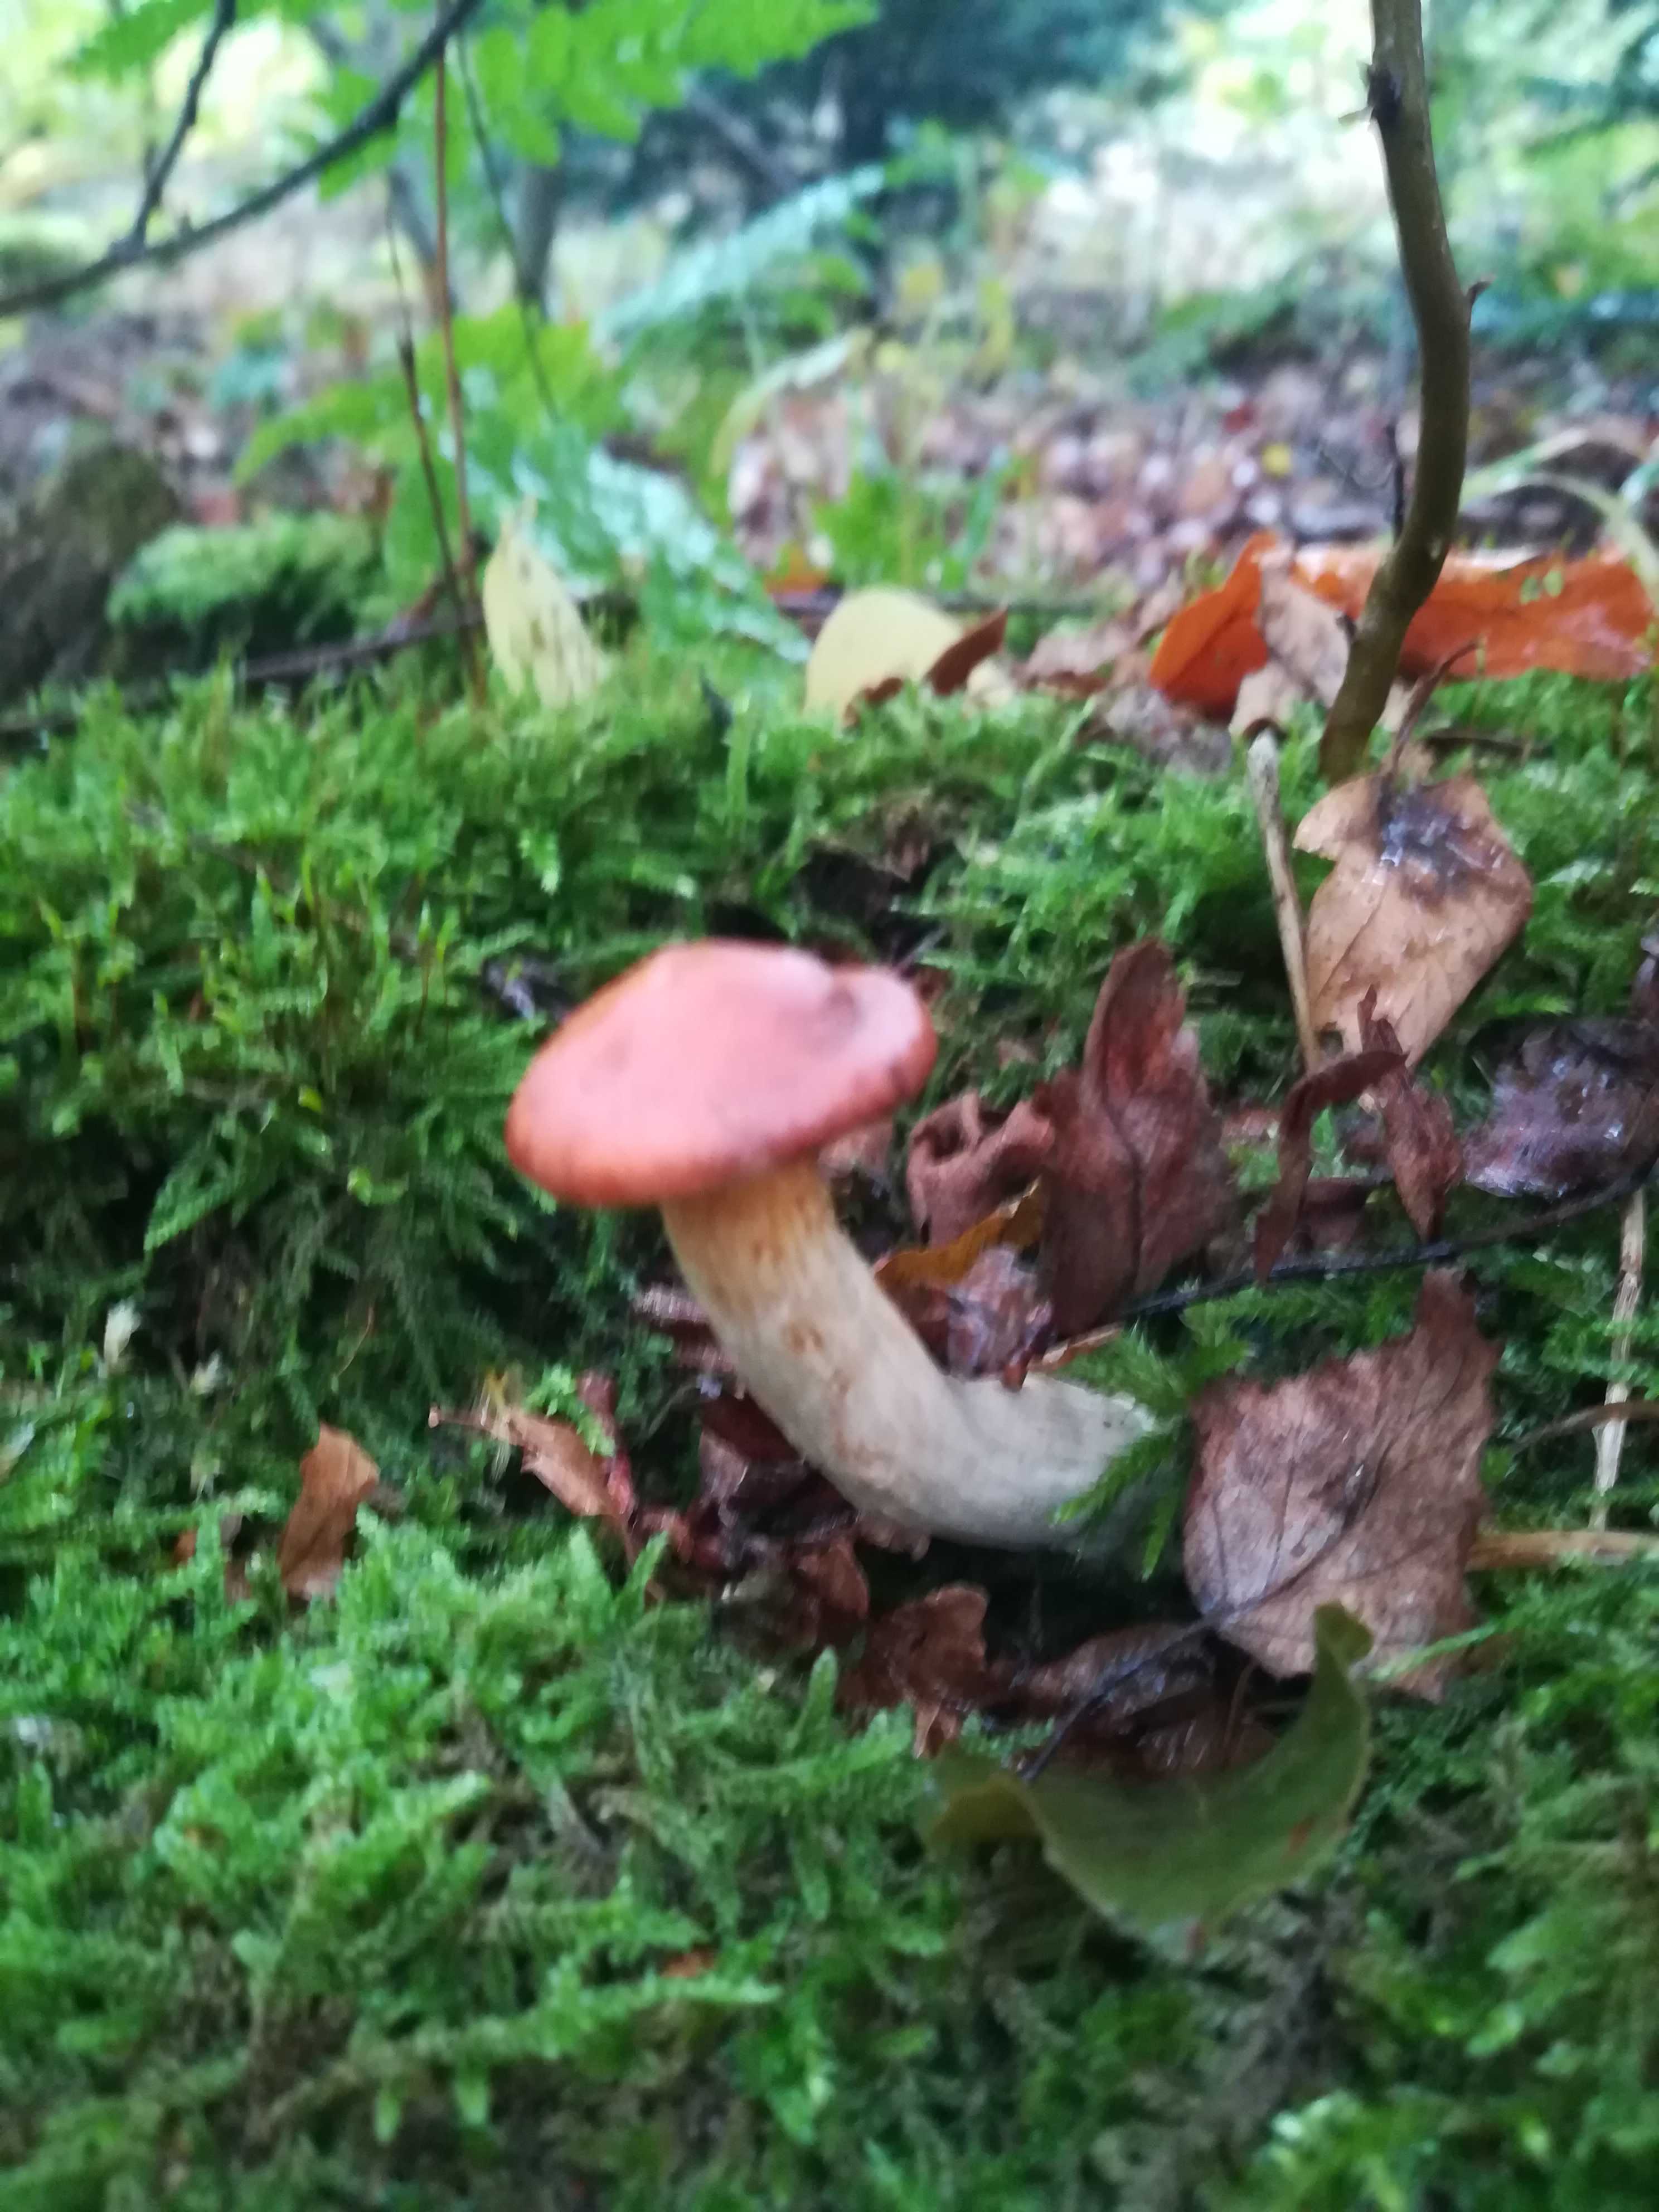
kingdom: Fungi
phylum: Basidiomycota
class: Agaricomycetes
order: Agaricales
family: Hymenogastraceae
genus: Gymnopilus
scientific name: Gymnopilus penetrans
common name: plettet flammehat
